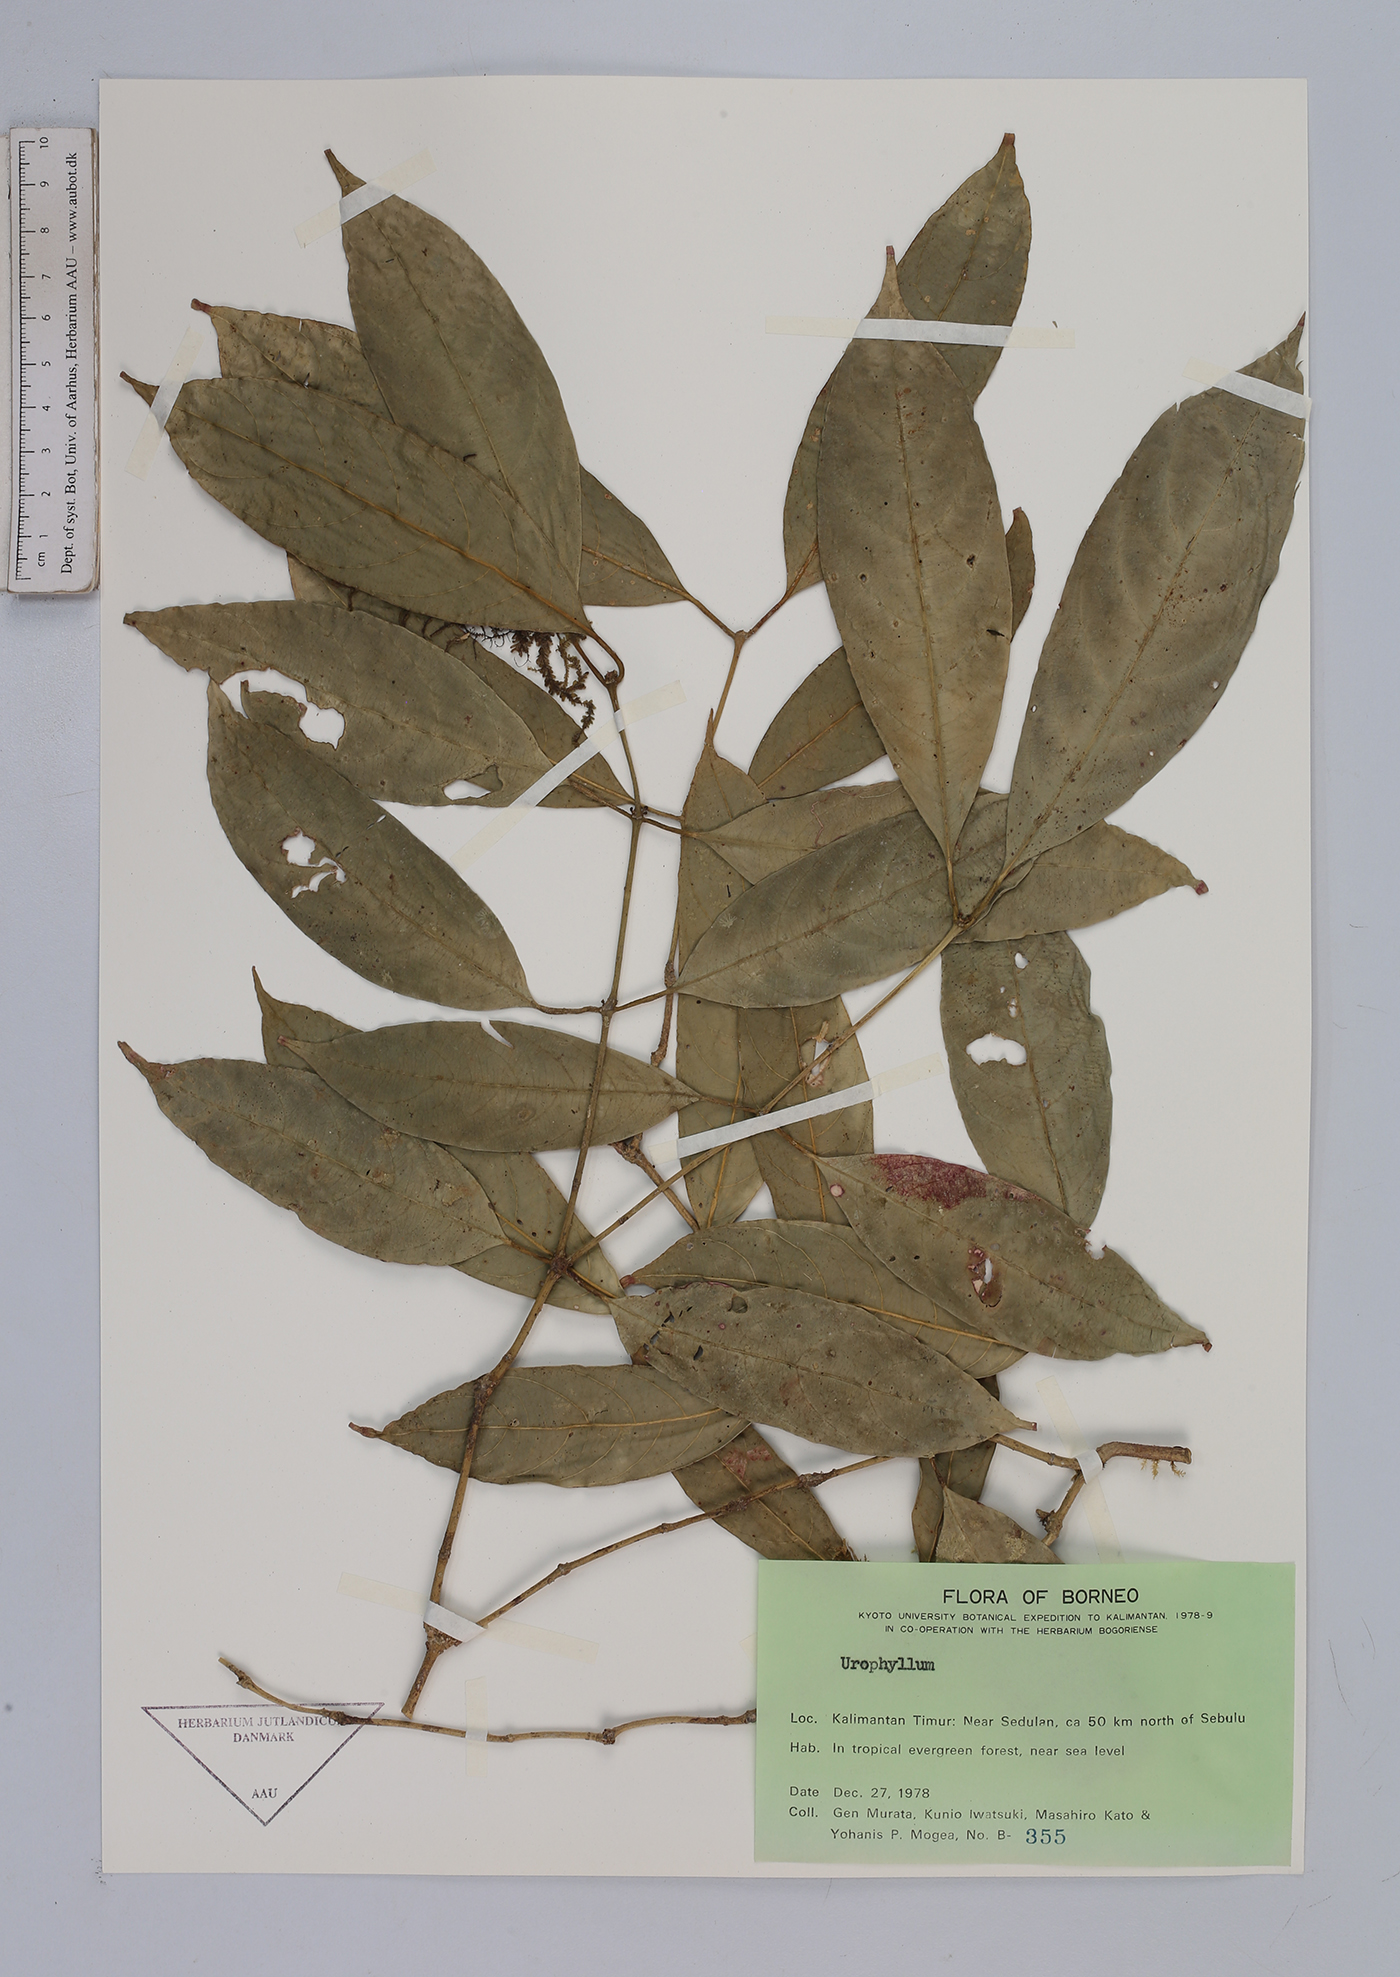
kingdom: Plantae
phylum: Tracheophyta
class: Magnoliopsida
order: Gentianales
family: Rubiaceae
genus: Urophyllum
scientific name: Urophyllum
